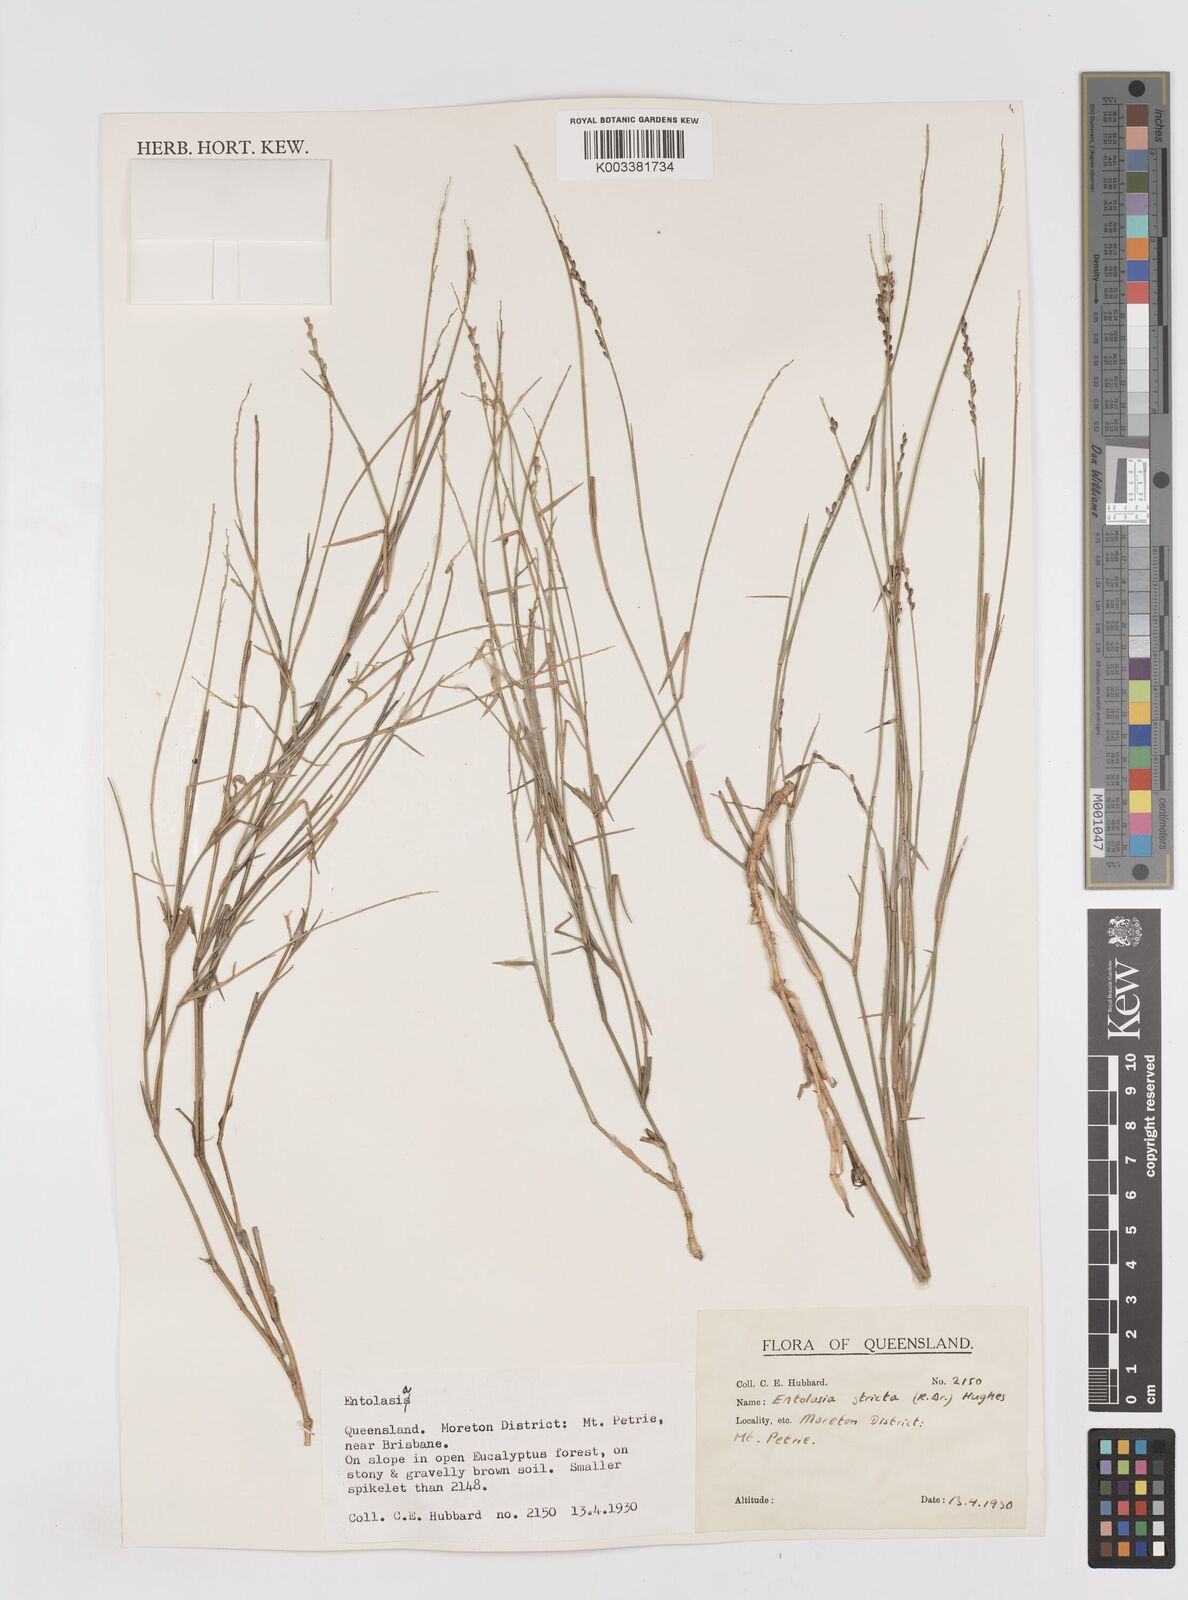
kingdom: Plantae
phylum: Tracheophyta
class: Liliopsida
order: Poales
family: Poaceae
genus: Entolasia
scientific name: Entolasia stricta
